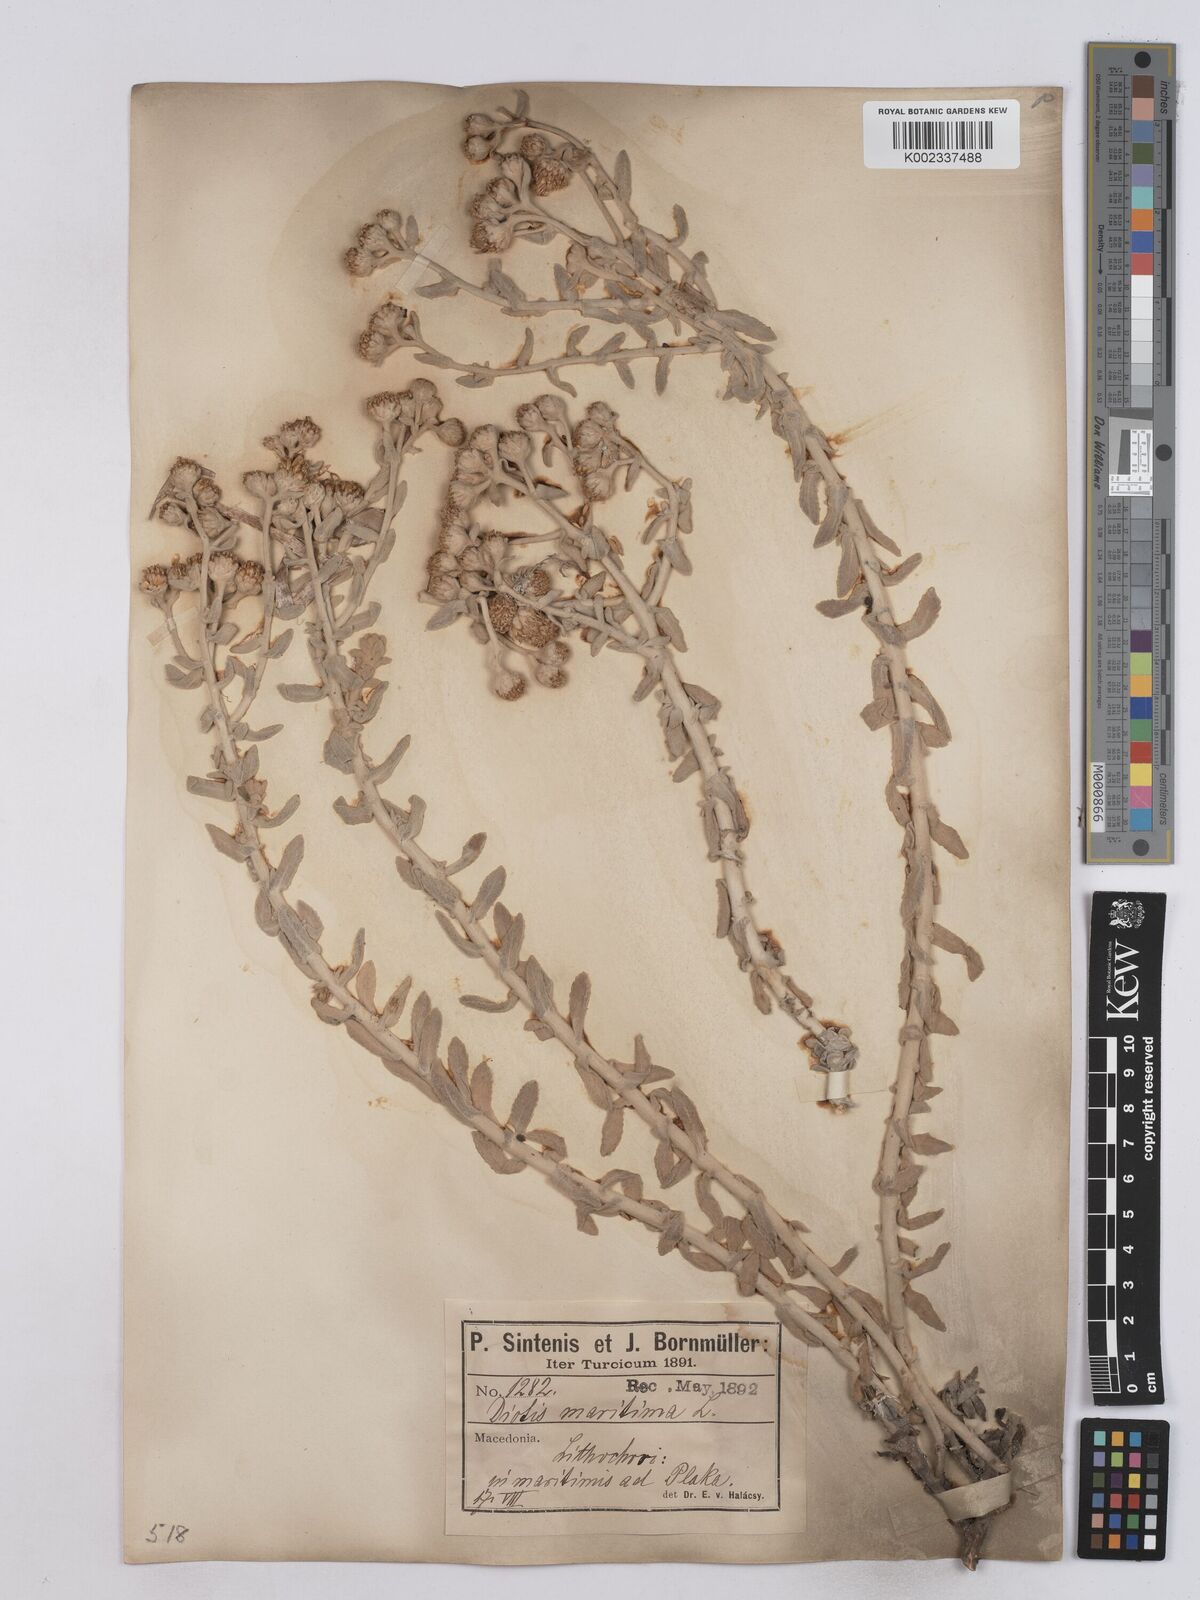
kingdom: Plantae
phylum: Tracheophyta
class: Magnoliopsida
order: Asterales
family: Asteraceae
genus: Achillea
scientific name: Achillea maritima
